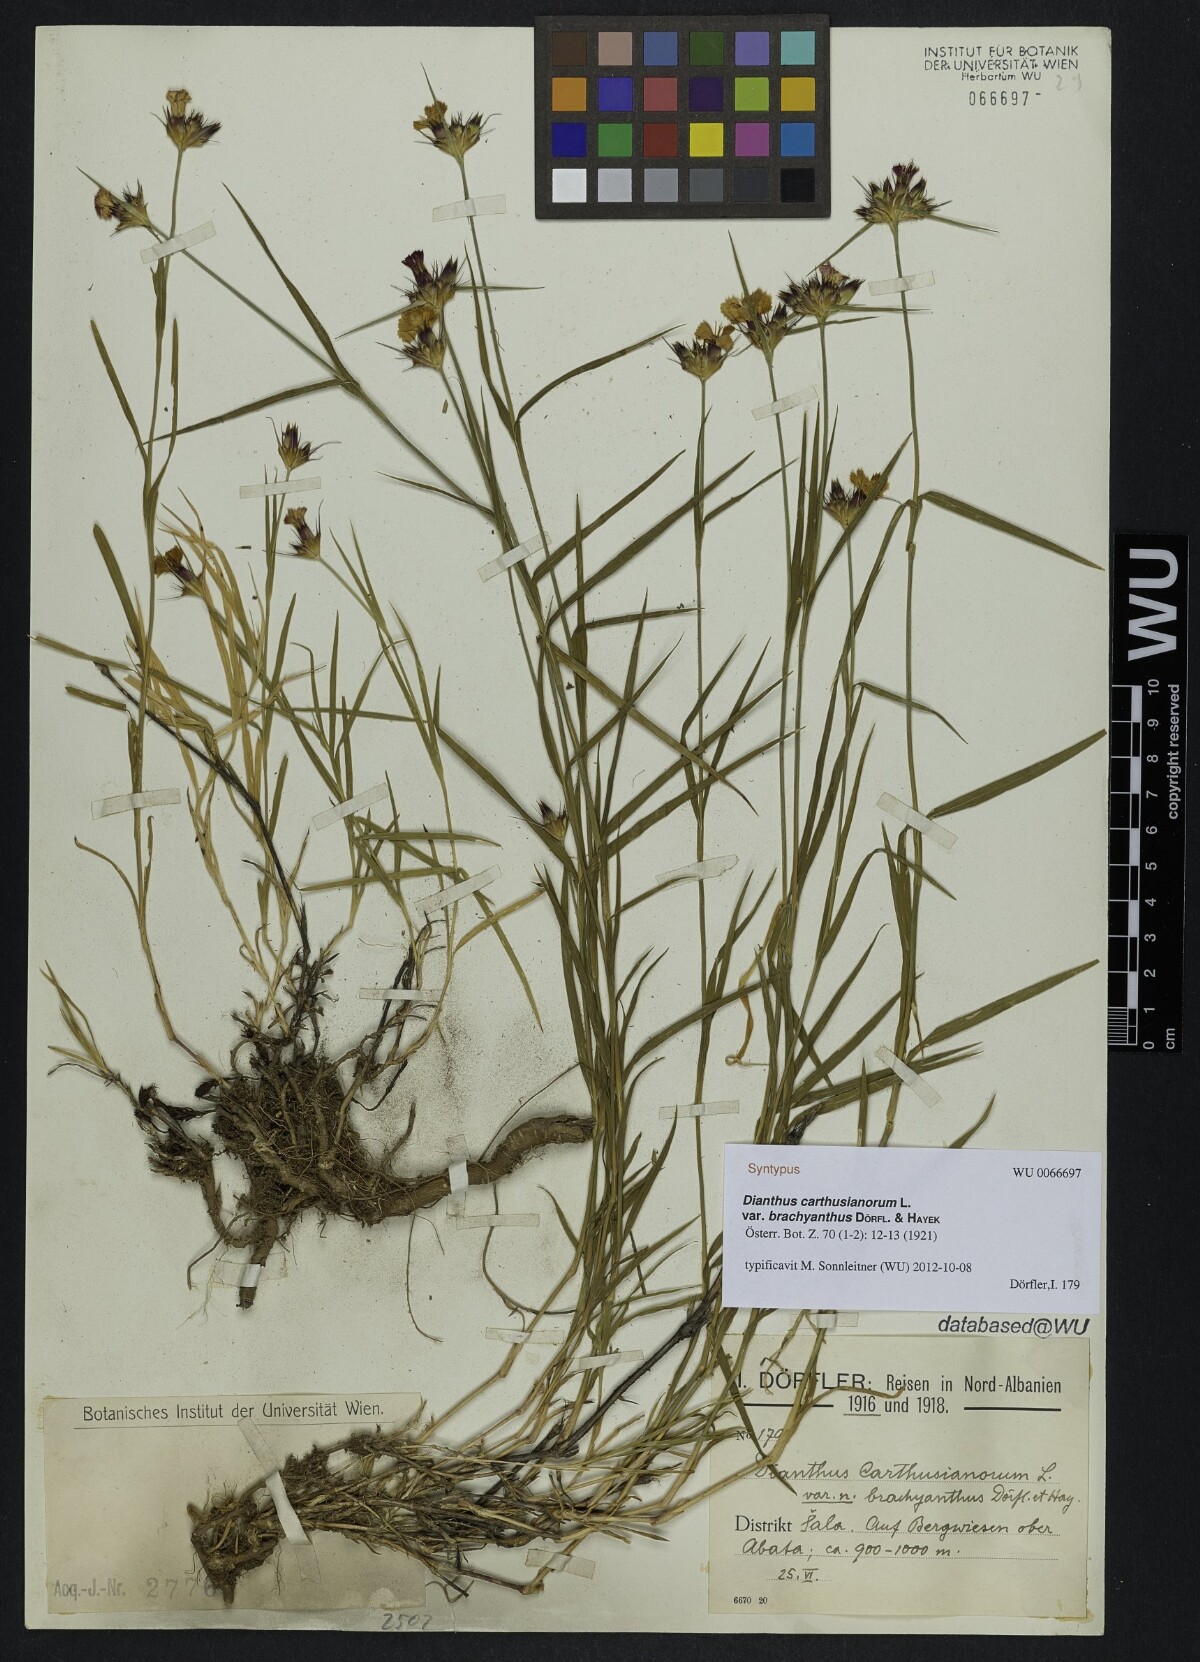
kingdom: Plantae
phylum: Tracheophyta
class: Magnoliopsida
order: Caryophyllales
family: Caryophyllaceae
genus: Dianthus
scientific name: Dianthus carthusianorum
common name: Carthusian pink
